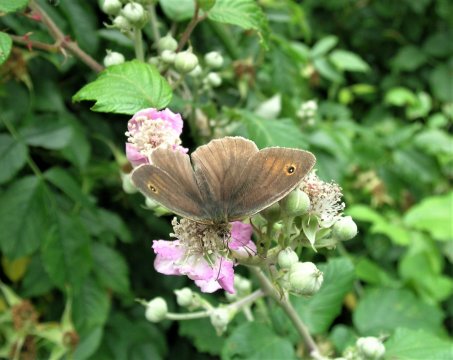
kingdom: Animalia
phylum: Arthropoda
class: Insecta
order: Lepidoptera
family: Nymphalidae
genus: Maniola
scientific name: Maniola jurtina
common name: Meadow Brown
